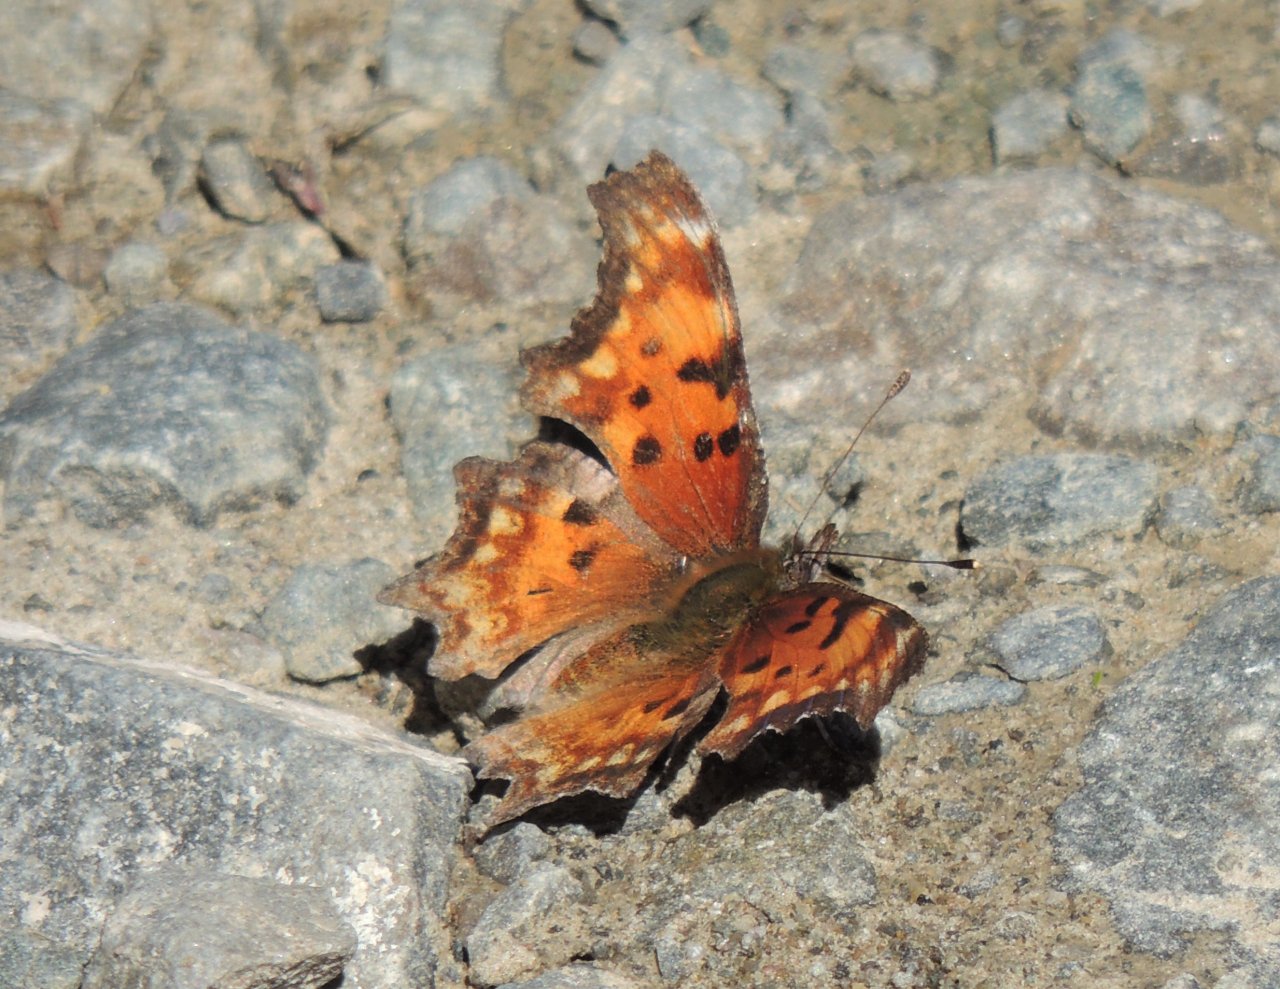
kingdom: Animalia
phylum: Arthropoda
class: Insecta
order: Lepidoptera
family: Nymphalidae
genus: Polygonia
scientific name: Polygonia gracilis
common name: Hoary Comma
